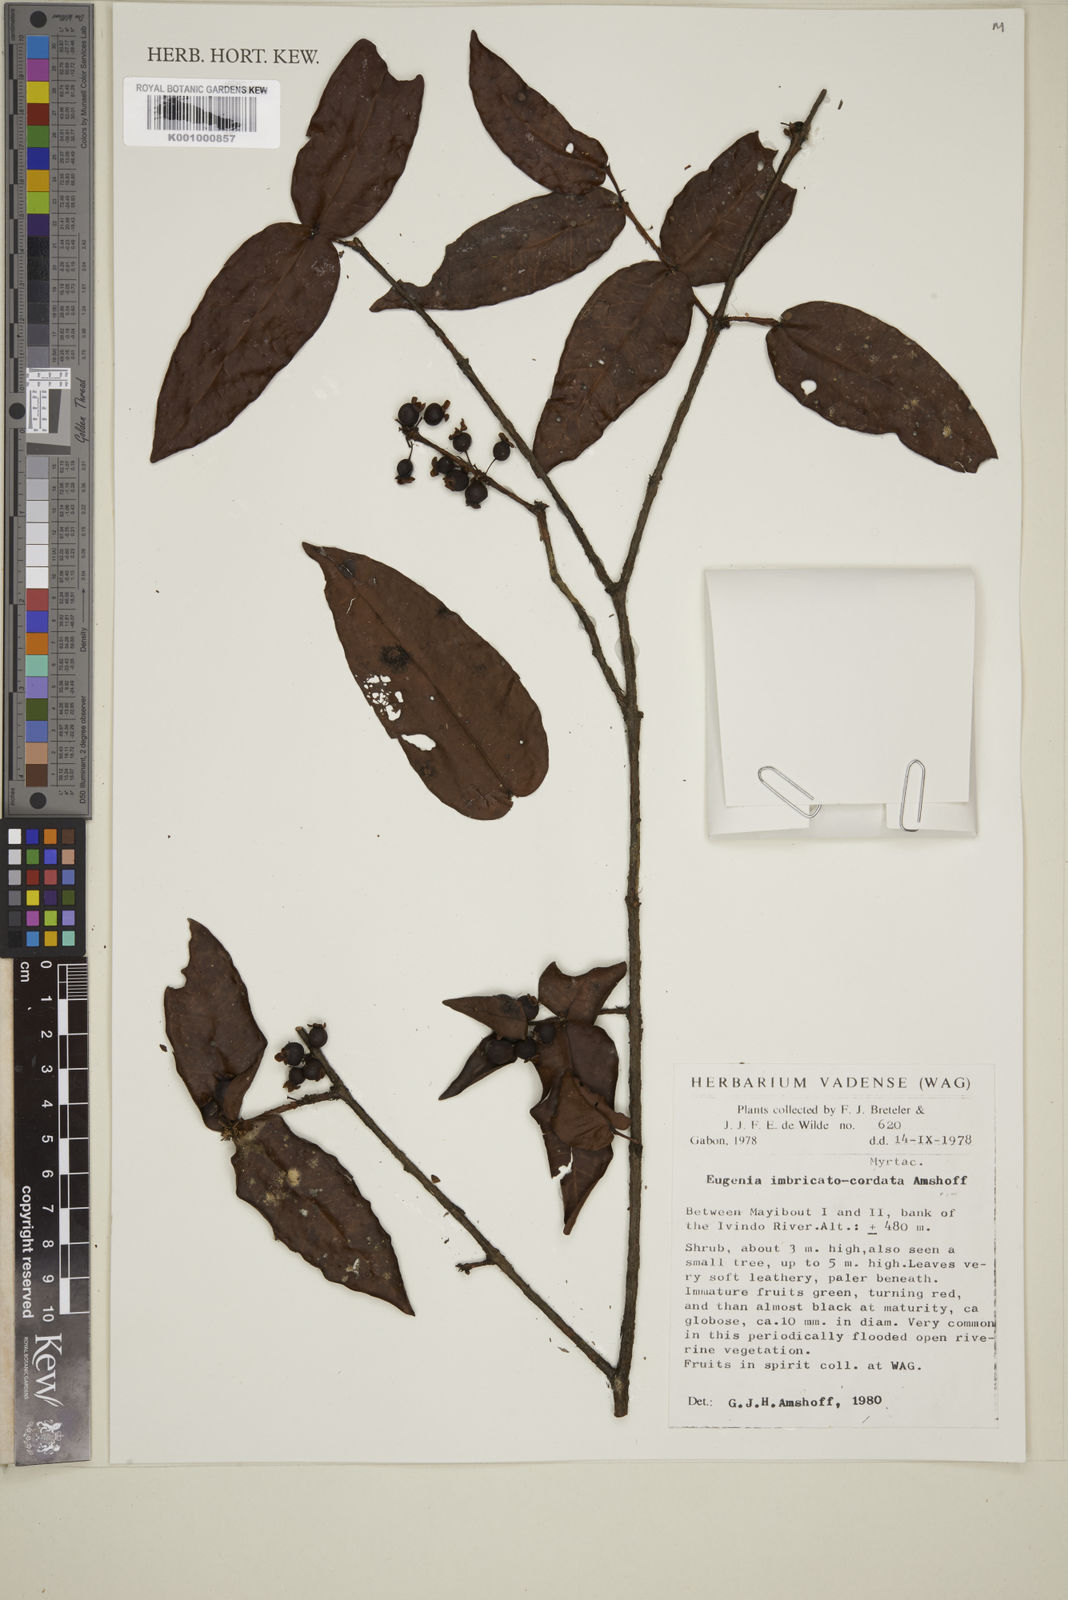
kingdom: Plantae
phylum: Tracheophyta
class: Magnoliopsida
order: Myrtales
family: Myrtaceae
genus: Eugenia
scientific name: Eugenia imbricatocordata
